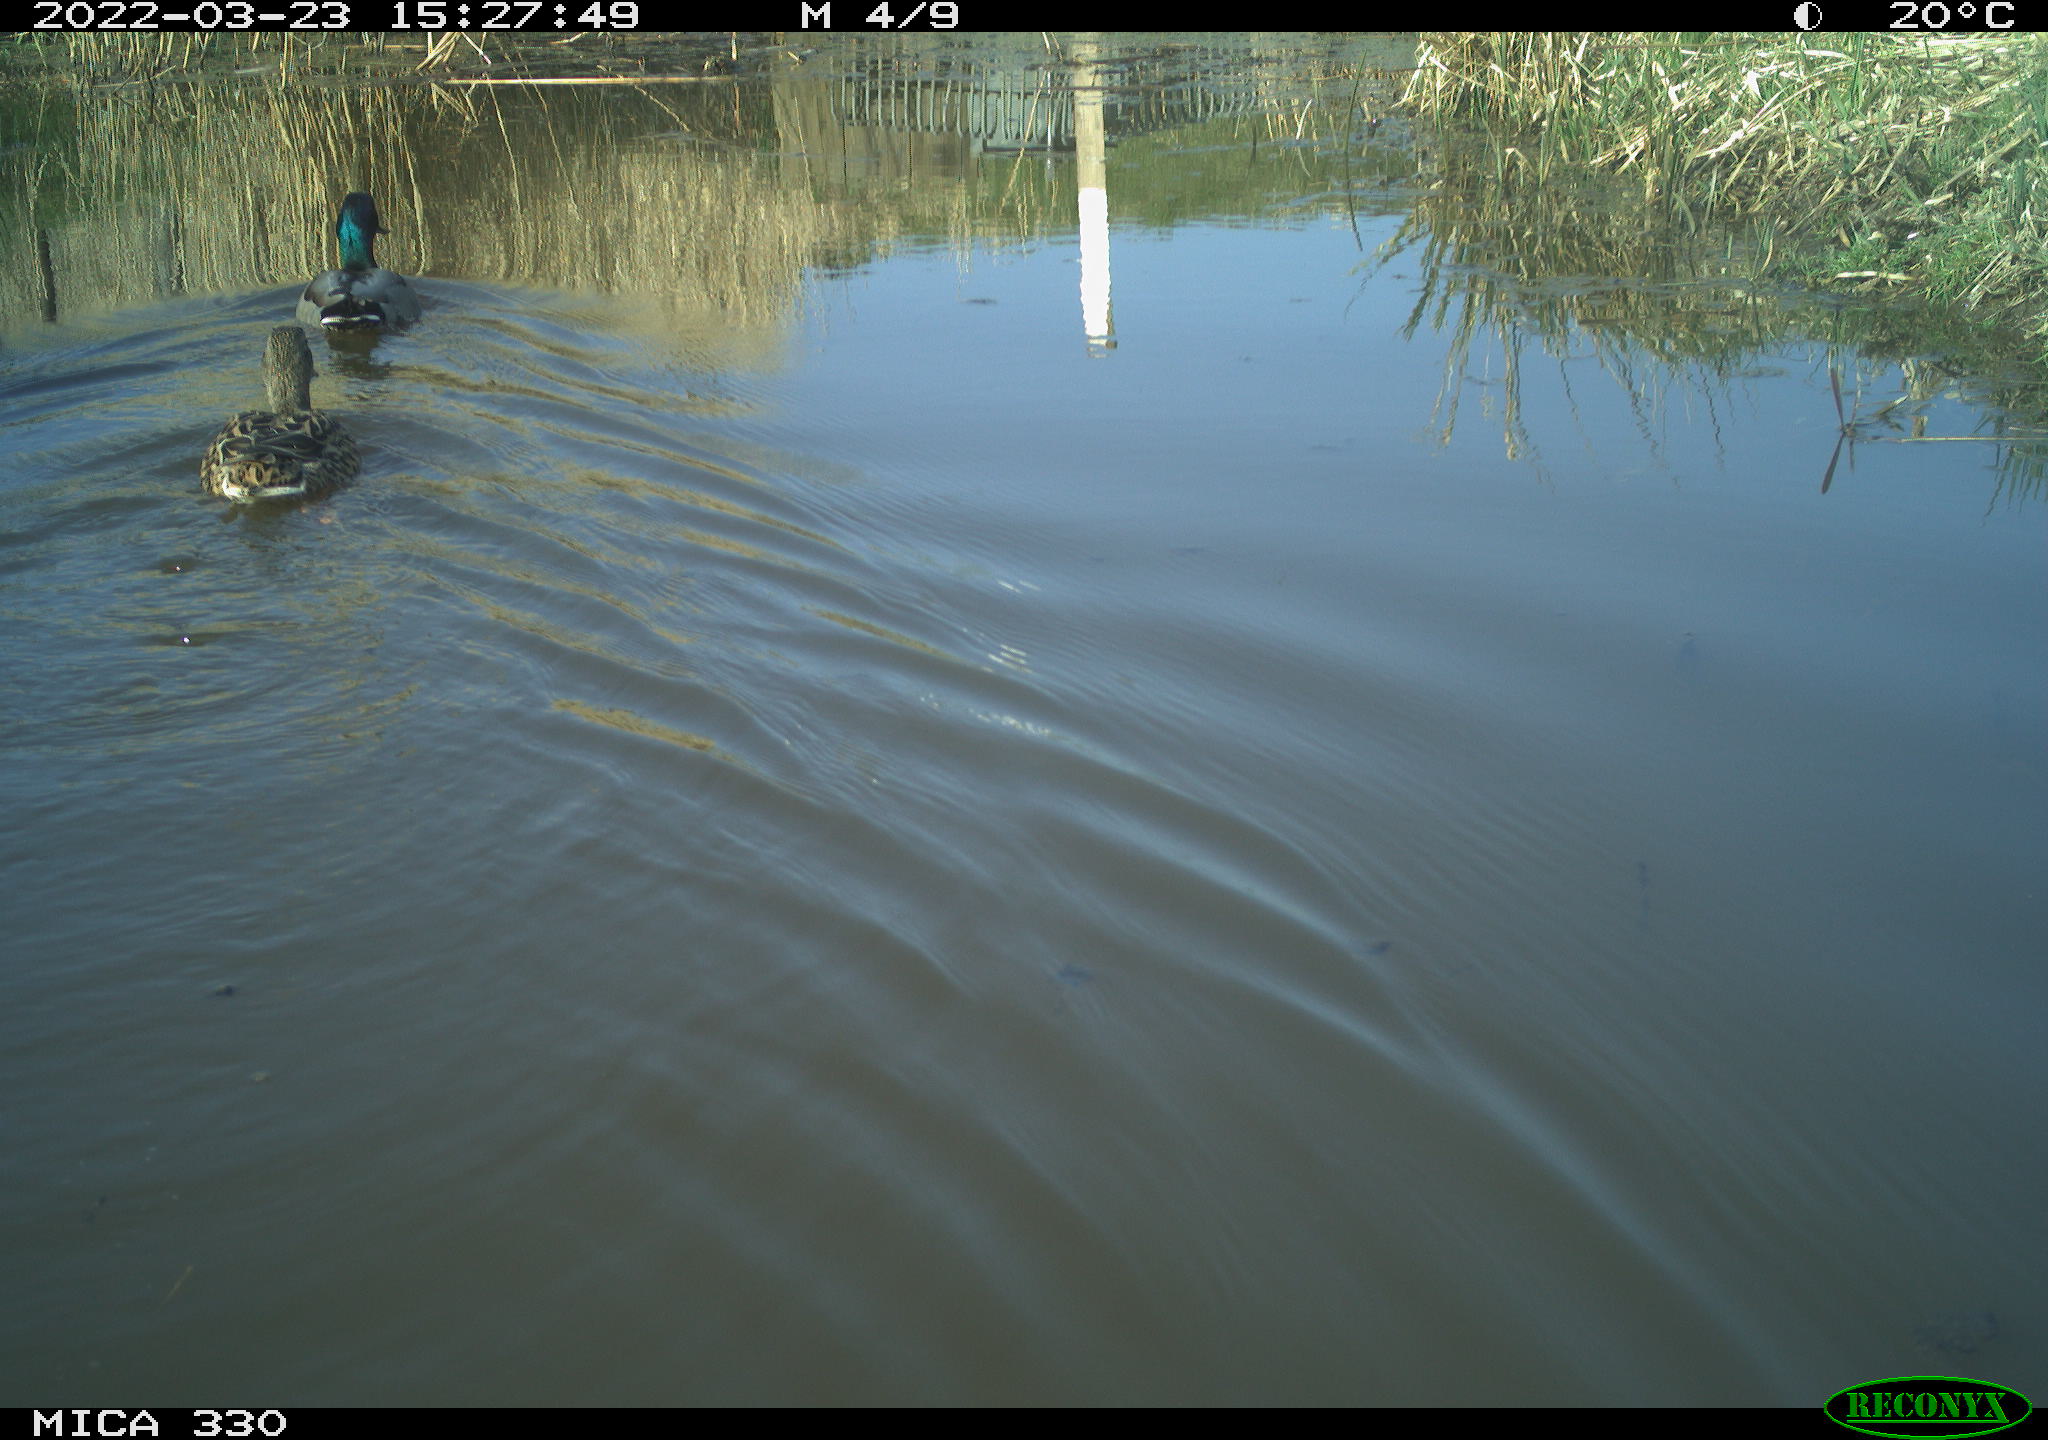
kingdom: Animalia
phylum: Chordata
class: Aves
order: Anseriformes
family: Anatidae
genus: Anas
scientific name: Anas platyrhynchos
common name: Mallard
